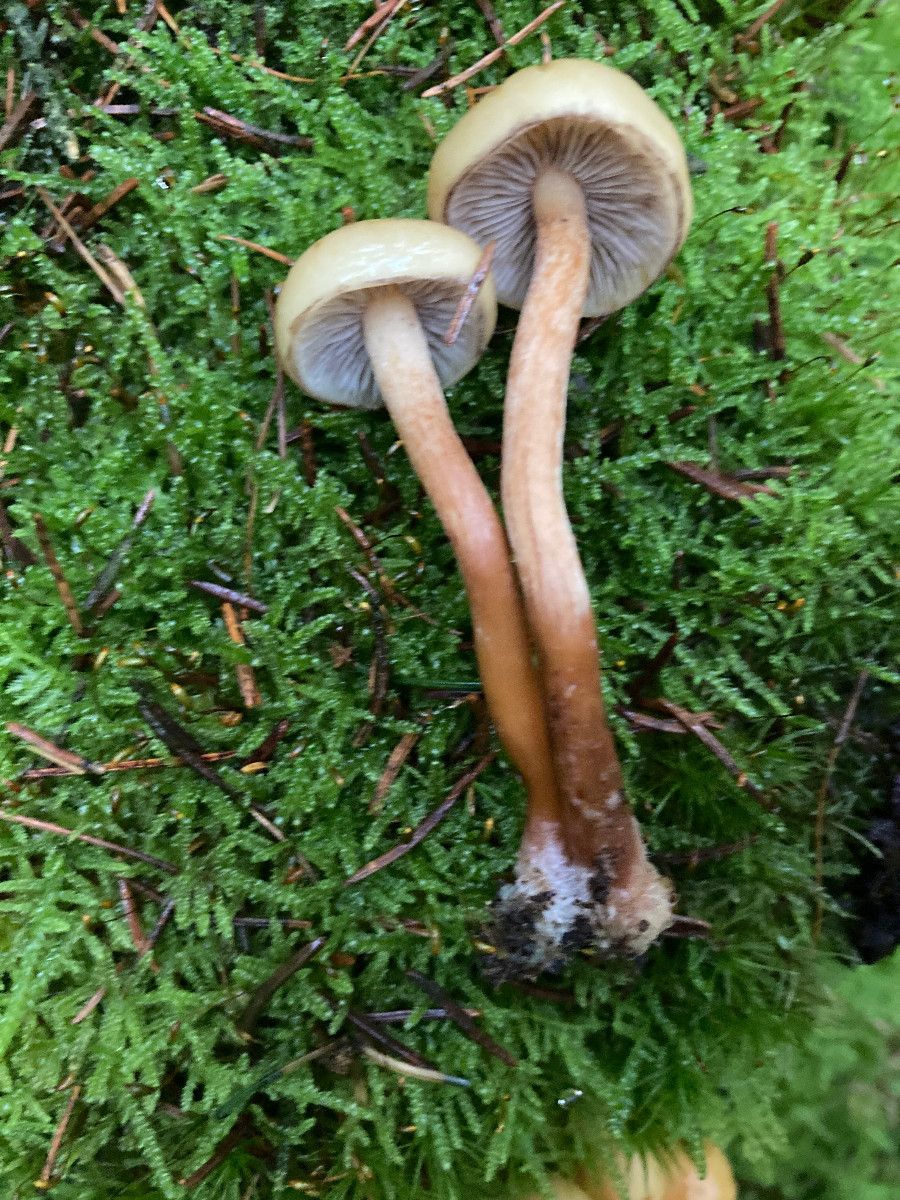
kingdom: Fungi
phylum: Basidiomycota
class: Agaricomycetes
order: Agaricales
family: Strophariaceae
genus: Hypholoma
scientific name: Hypholoma capnoides
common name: gran-svovlhat
